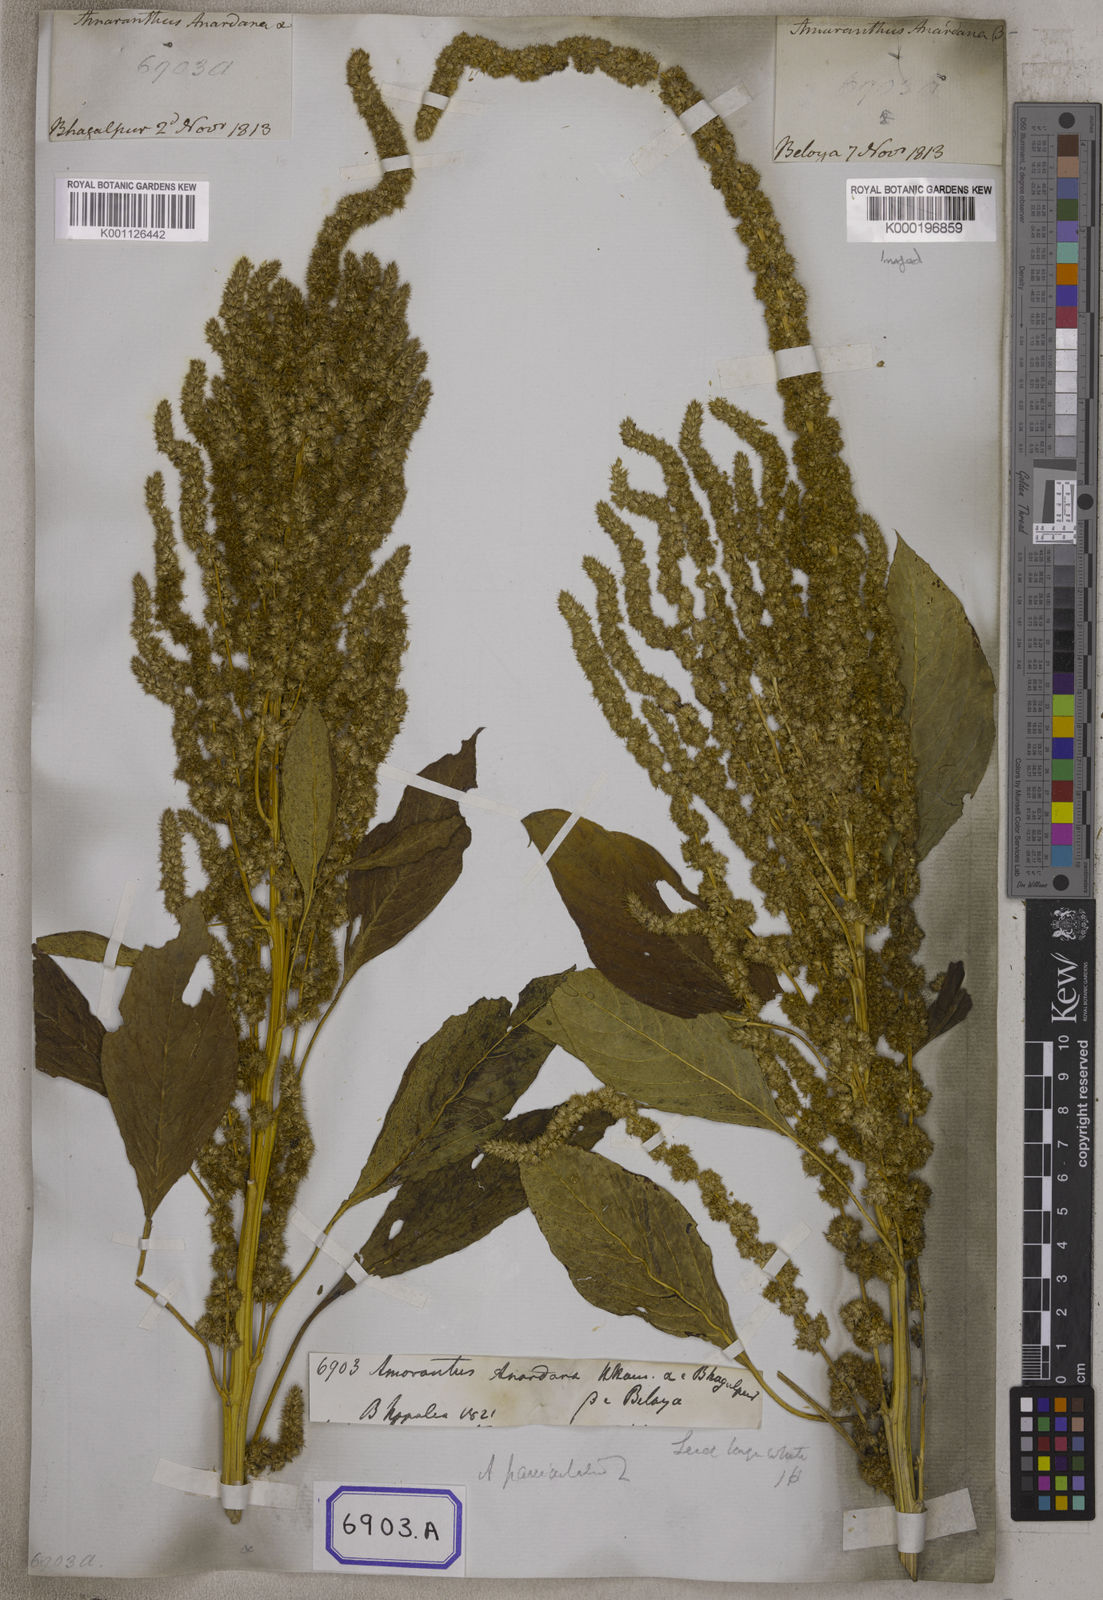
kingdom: Plantae
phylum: Tracheophyta
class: Magnoliopsida
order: Caryophyllales
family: Amaranthaceae
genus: Amaranthus
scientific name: Amaranthus
